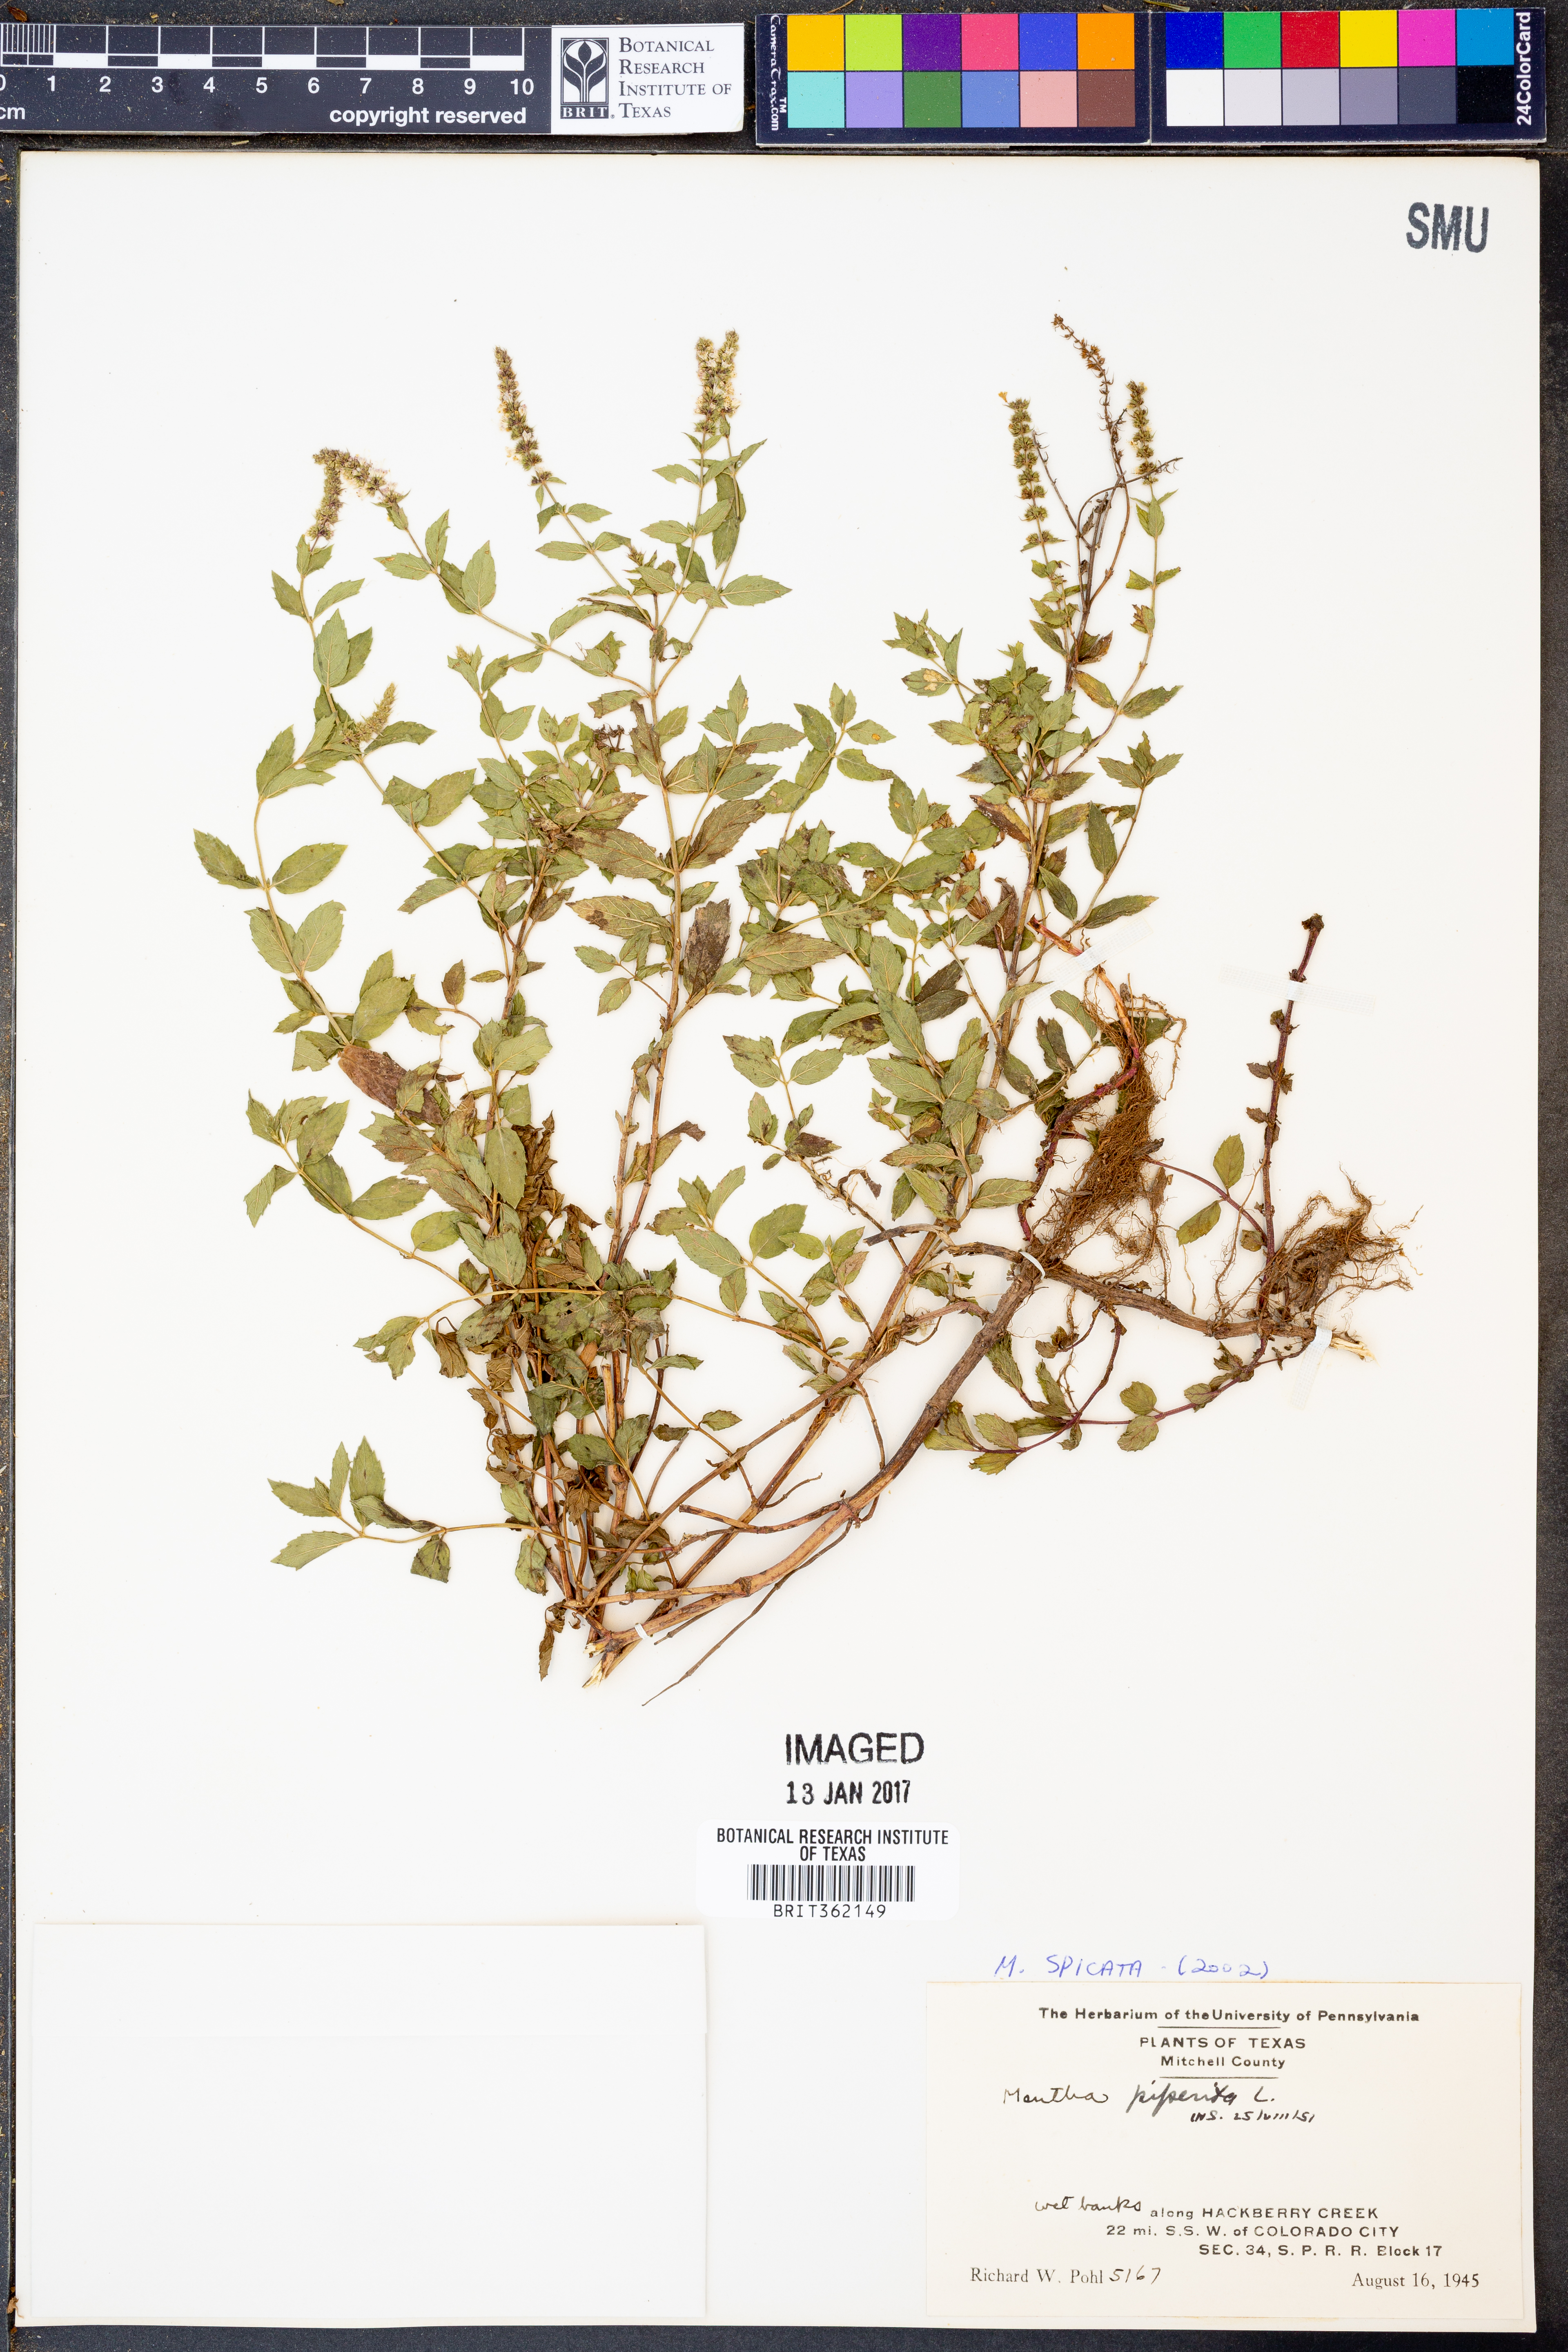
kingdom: Plantae
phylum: Tracheophyta
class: Magnoliopsida
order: Lamiales
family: Lamiaceae
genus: Mentha
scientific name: Mentha spicata
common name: Spearmint
